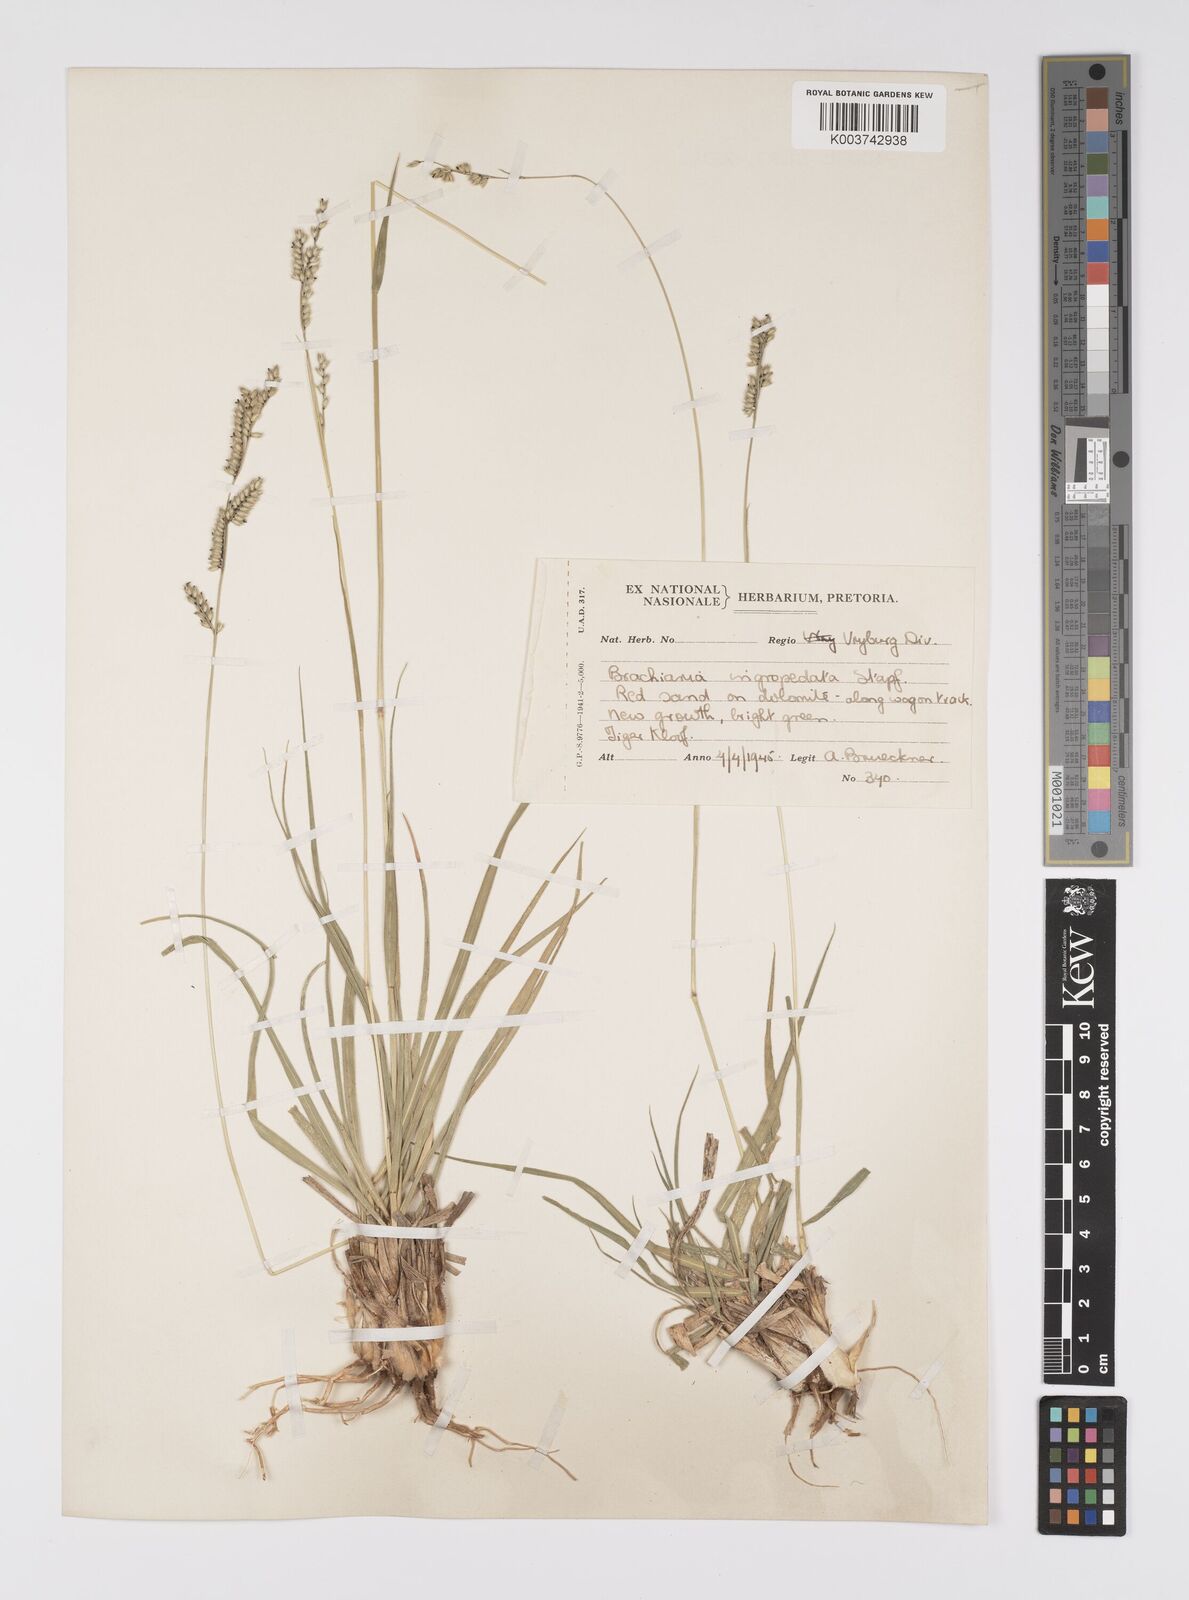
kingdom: Plantae
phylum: Tracheophyta
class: Liliopsida
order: Poales
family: Poaceae
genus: Urochloa
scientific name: Urochloa nigropedata
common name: Spotted signal grass
